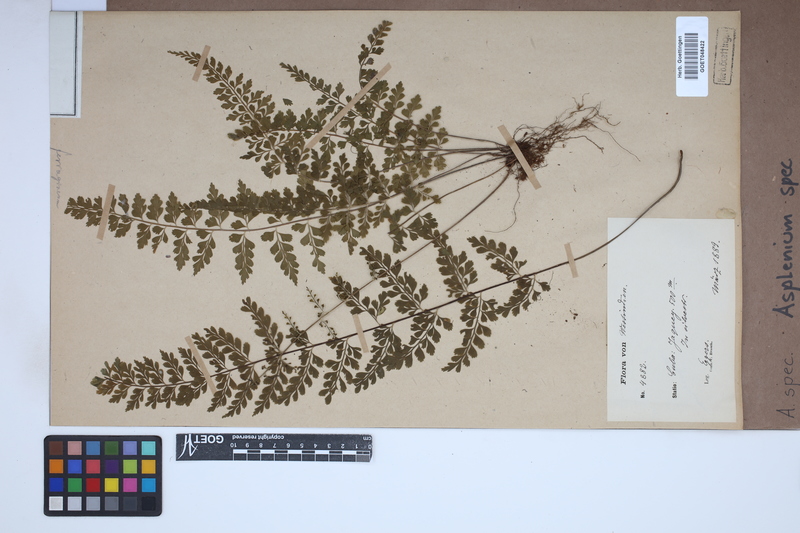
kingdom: Plantae
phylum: Tracheophyta
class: Polypodiopsida
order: Polypodiales
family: Aspleniaceae
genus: Asplenium
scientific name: Asplenium
